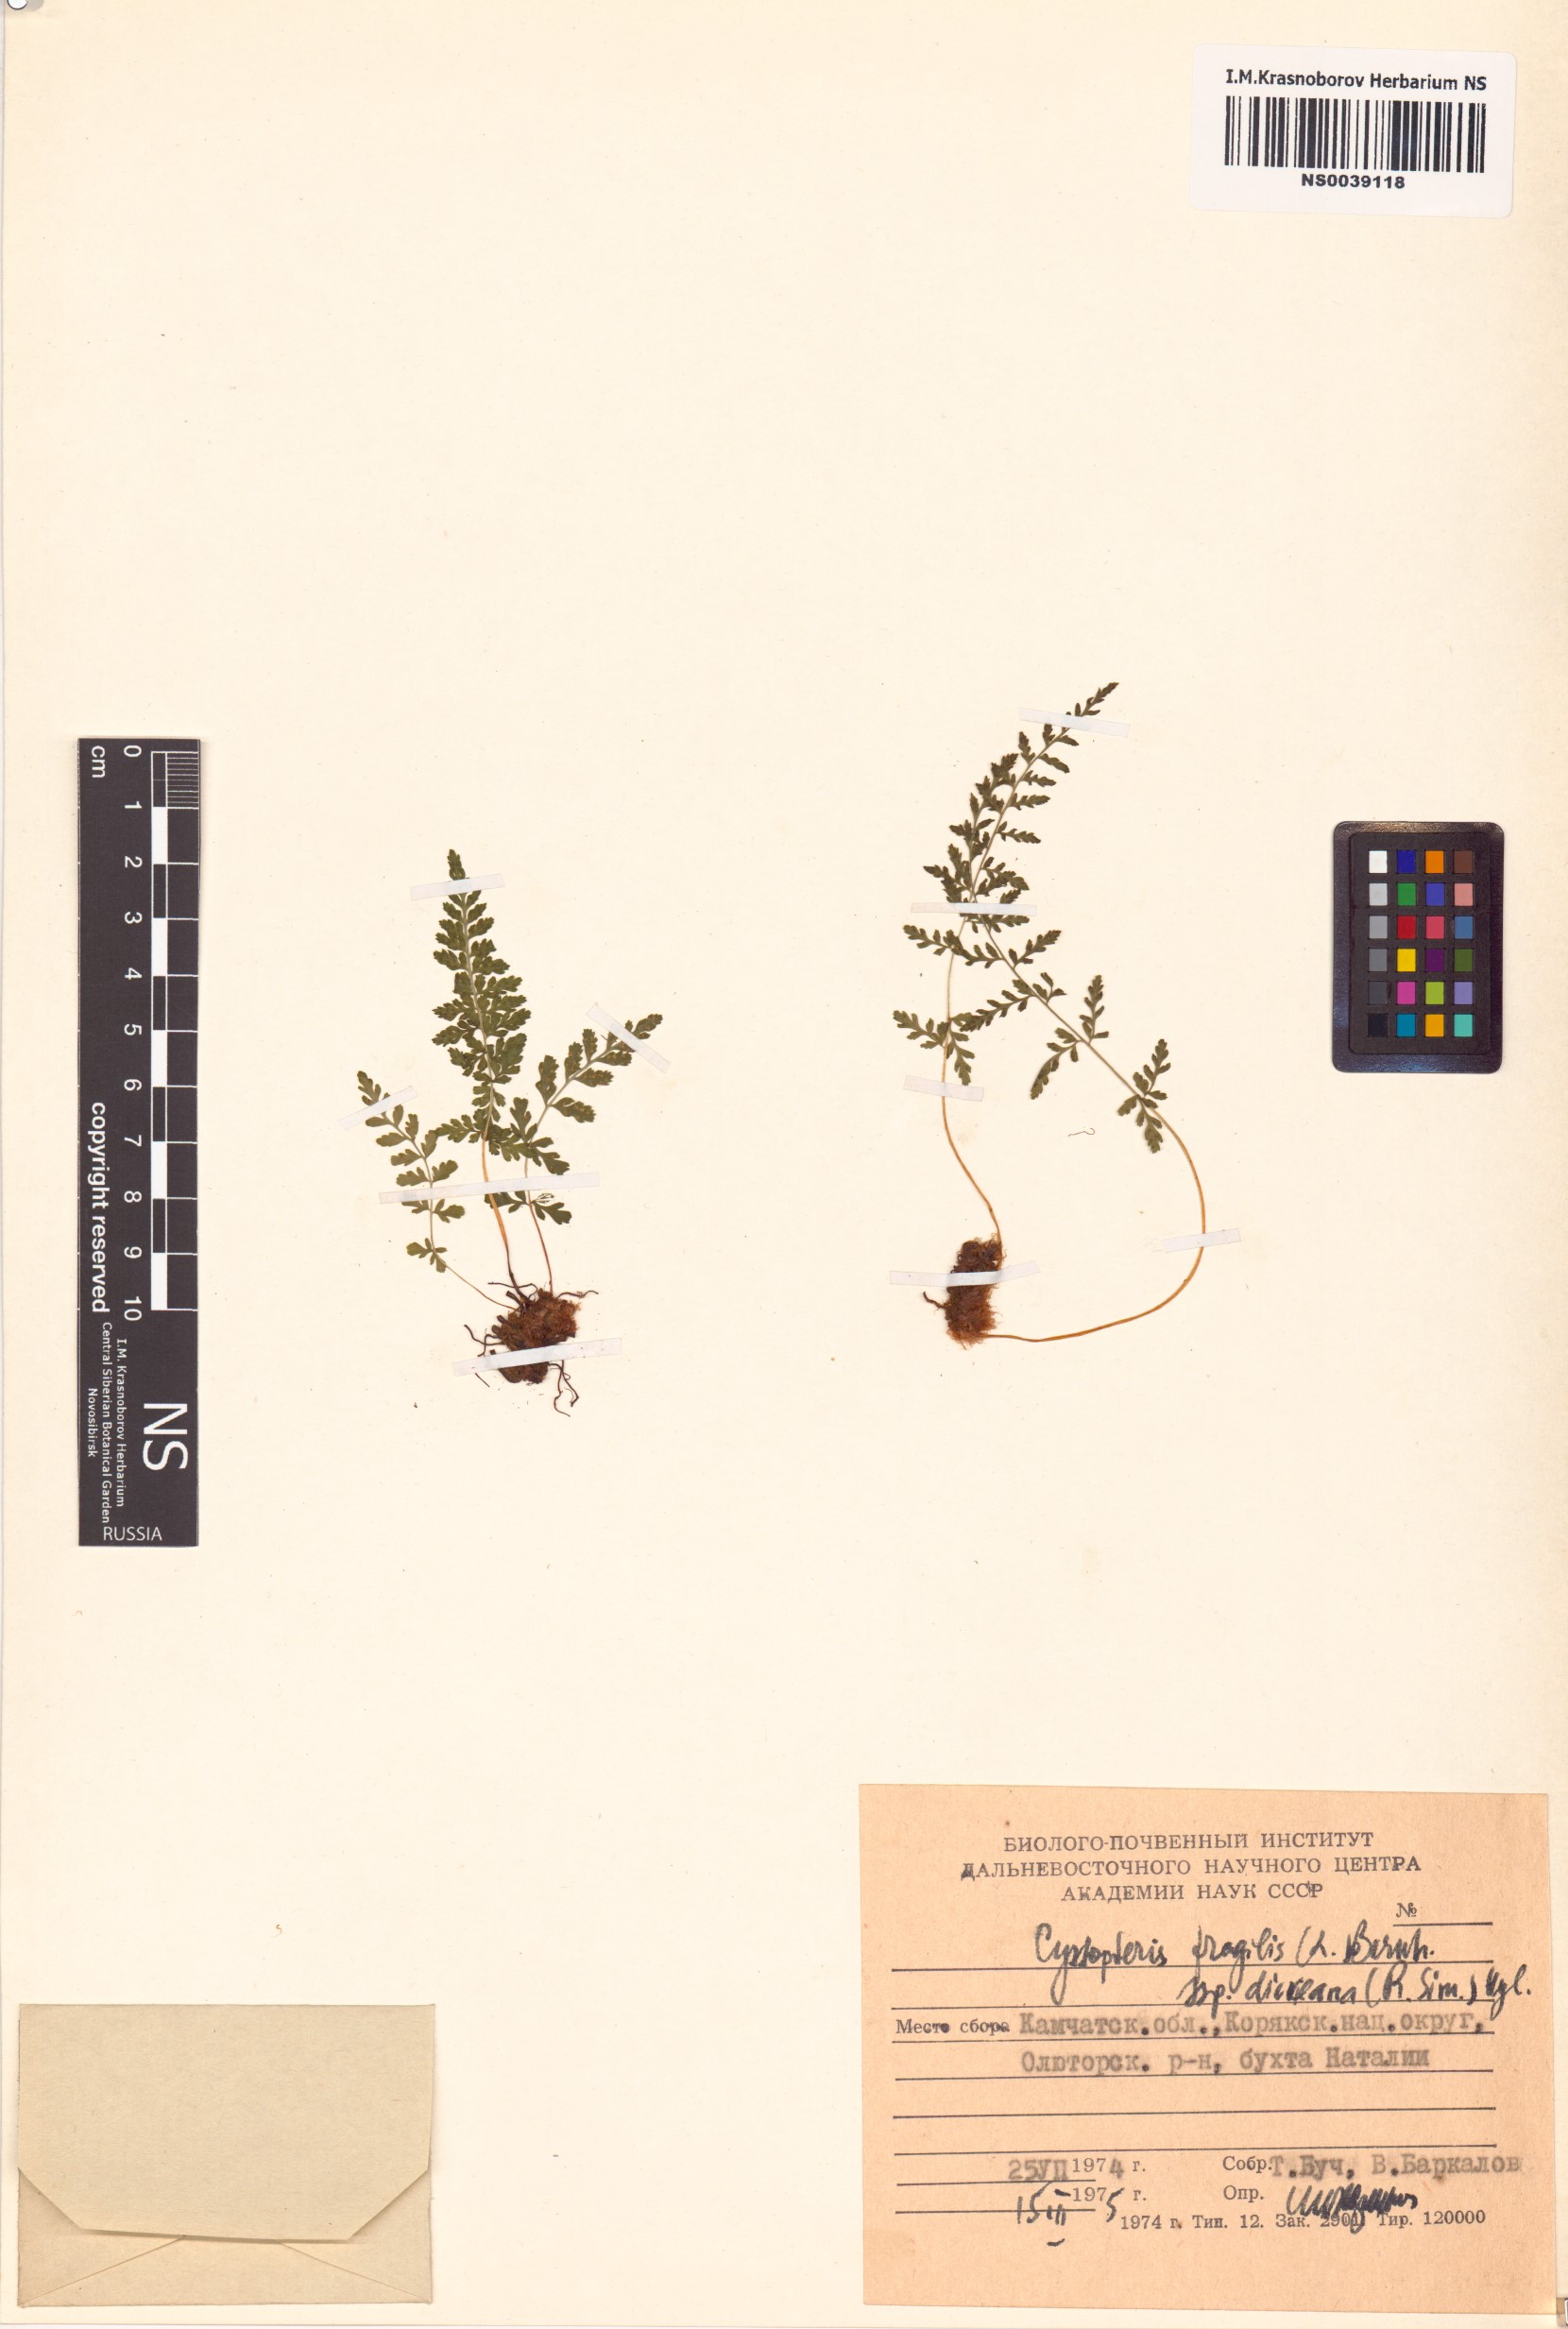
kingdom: Plantae
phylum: Tracheophyta
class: Polypodiopsida
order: Polypodiales
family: Cystopteridaceae
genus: Cystopteris
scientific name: Cystopteris dickieana
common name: Dickie's bladder-fern
